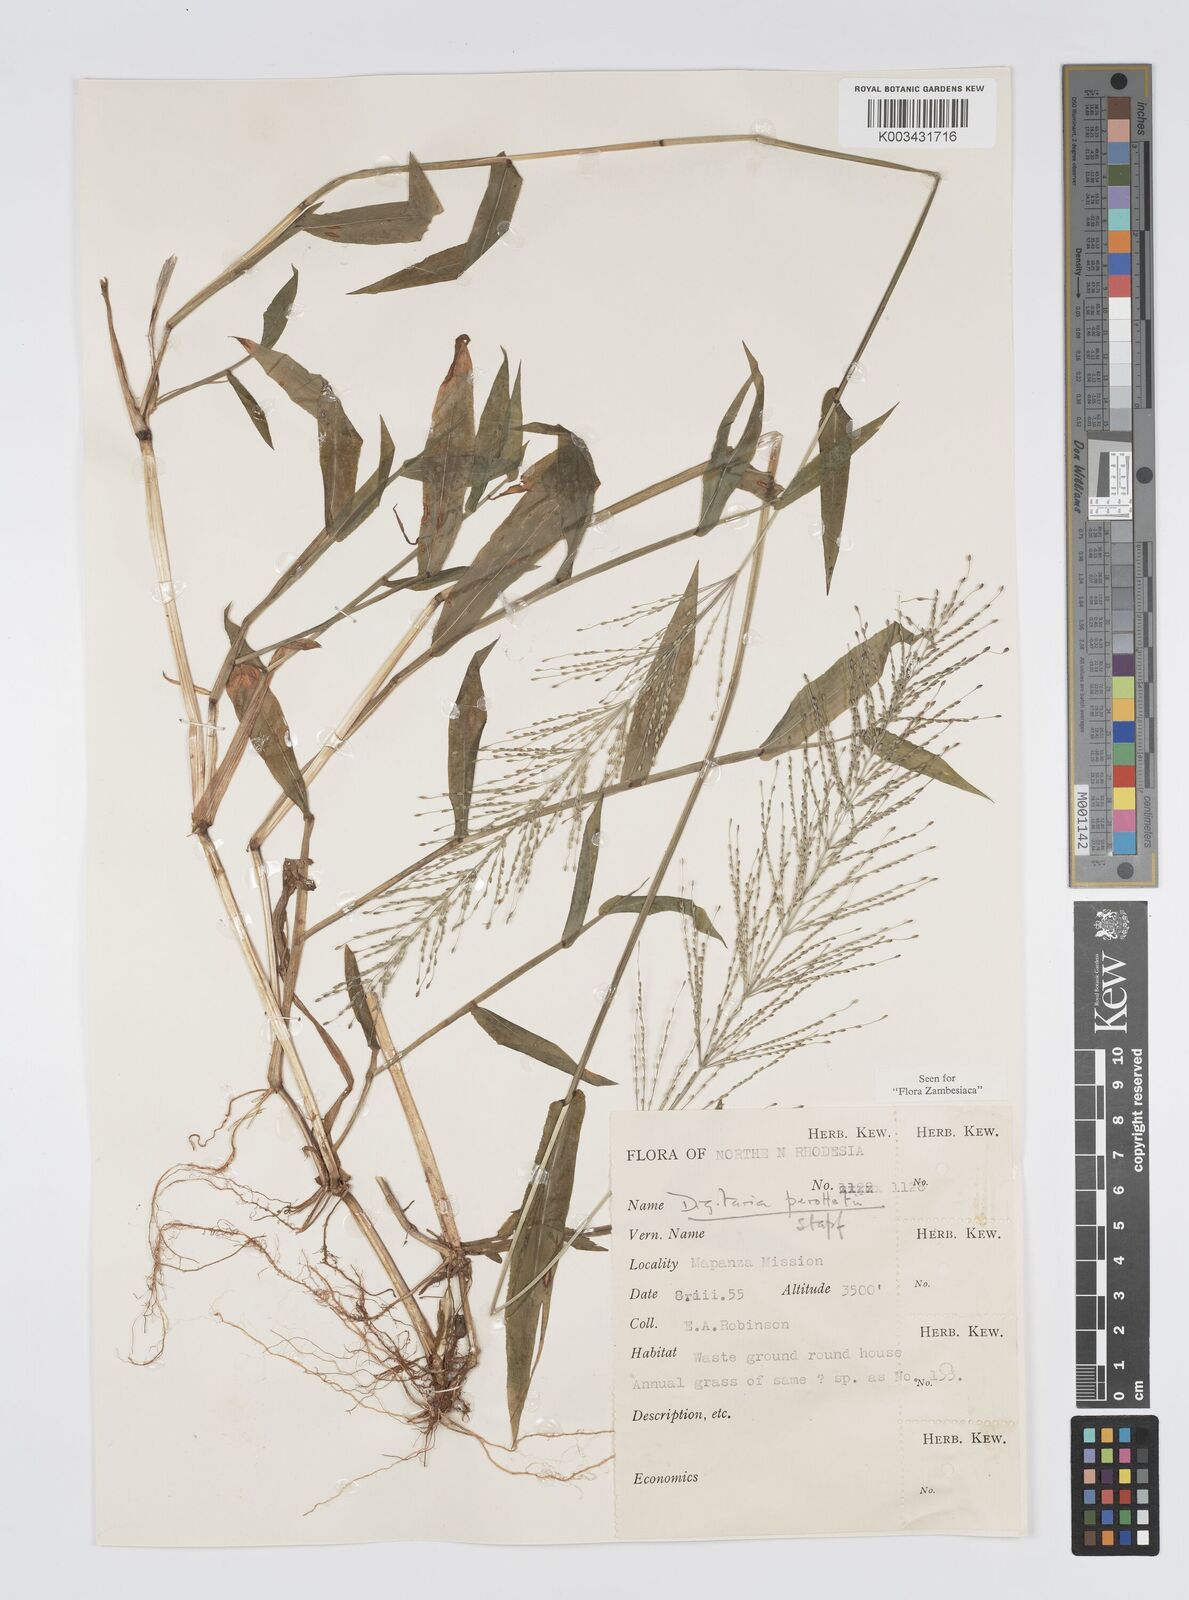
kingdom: Plantae
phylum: Tracheophyta
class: Liliopsida
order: Poales
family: Poaceae
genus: Digitaria
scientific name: Digitaria perrottetii
